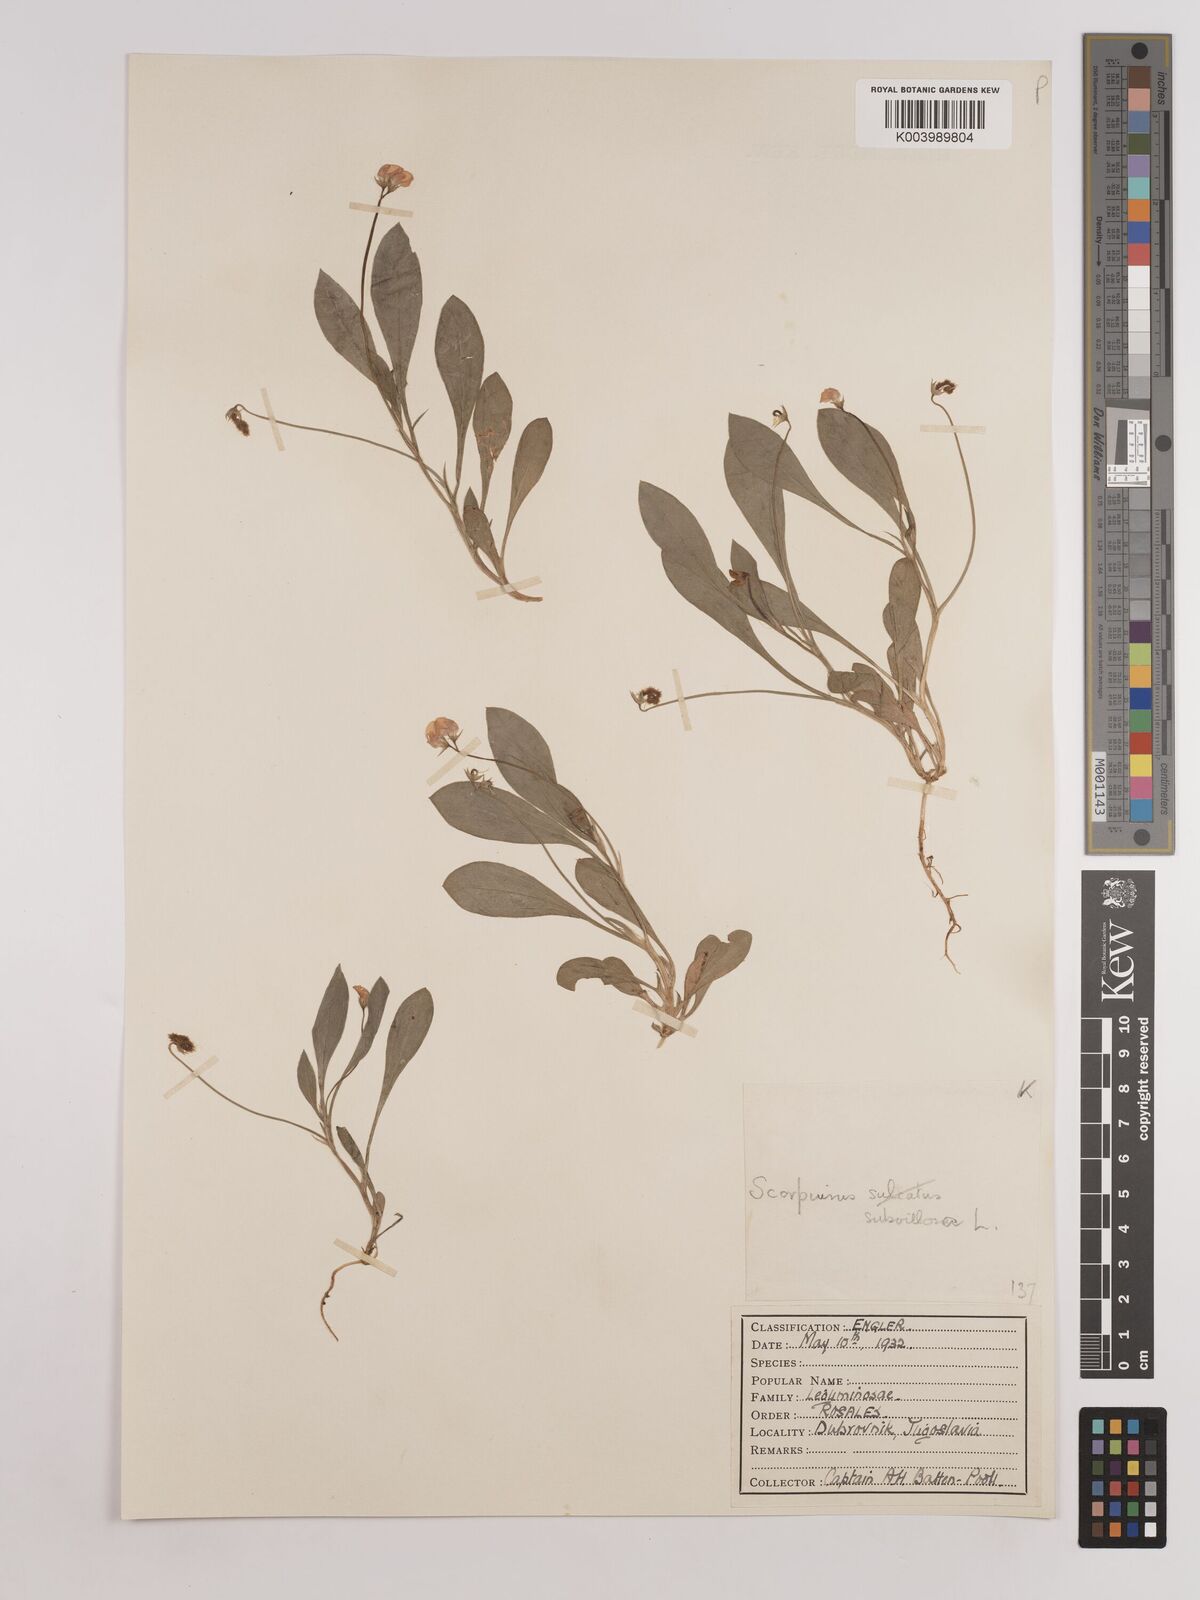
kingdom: Plantae
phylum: Tracheophyta
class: Magnoliopsida
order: Fabales
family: Fabaceae
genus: Scorpiurus
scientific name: Scorpiurus muricatus
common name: Caterpillar-plant
